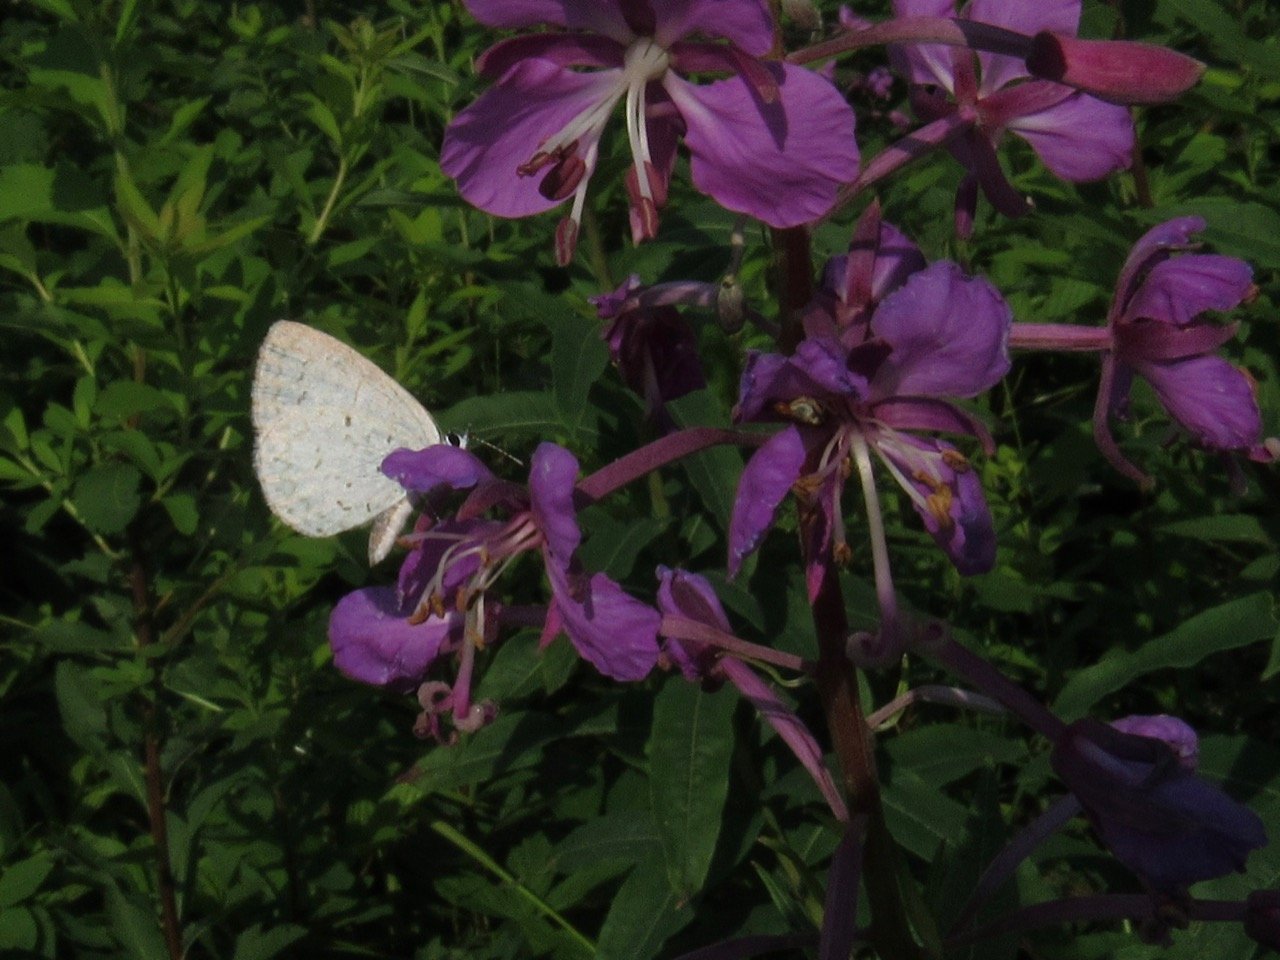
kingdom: Animalia
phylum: Arthropoda
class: Insecta
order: Lepidoptera
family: Lycaenidae
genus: Celastrina
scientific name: Celastrina
